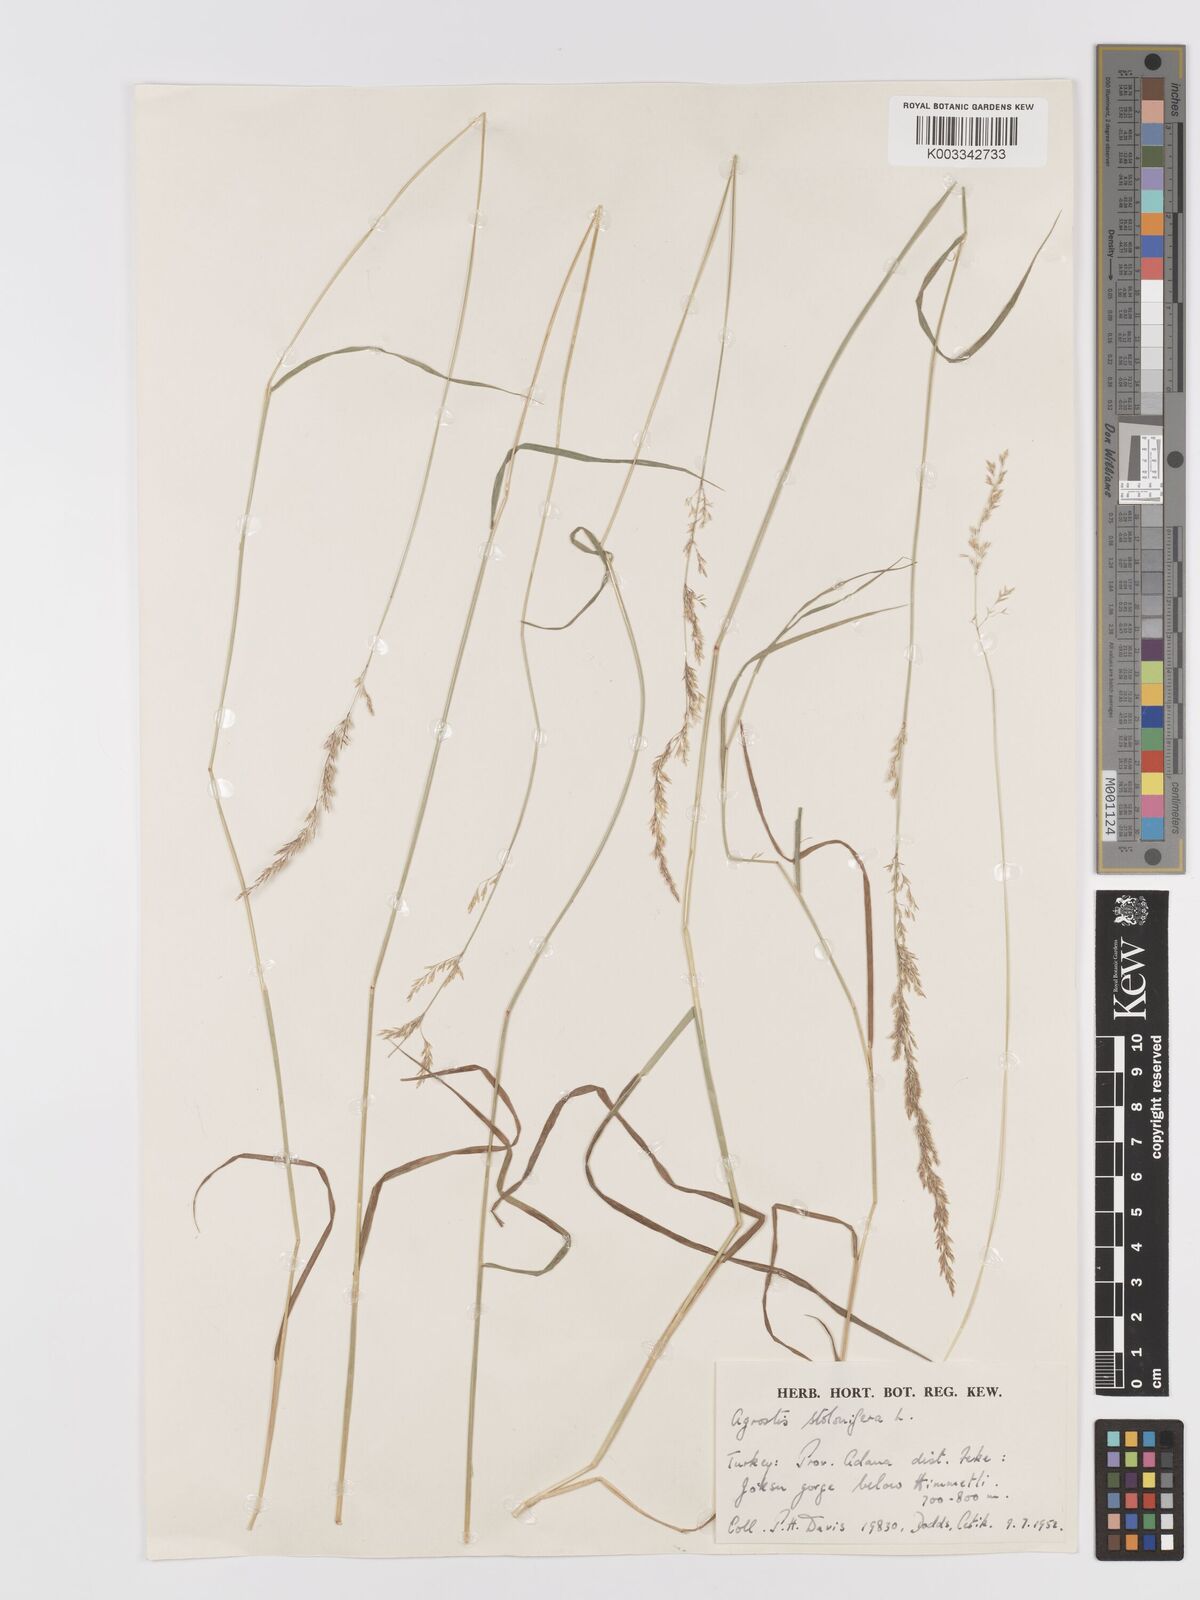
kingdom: Plantae
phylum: Tracheophyta
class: Liliopsida
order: Poales
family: Poaceae
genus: Agrostis
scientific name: Agrostis stolonifera
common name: Creeping bentgrass
